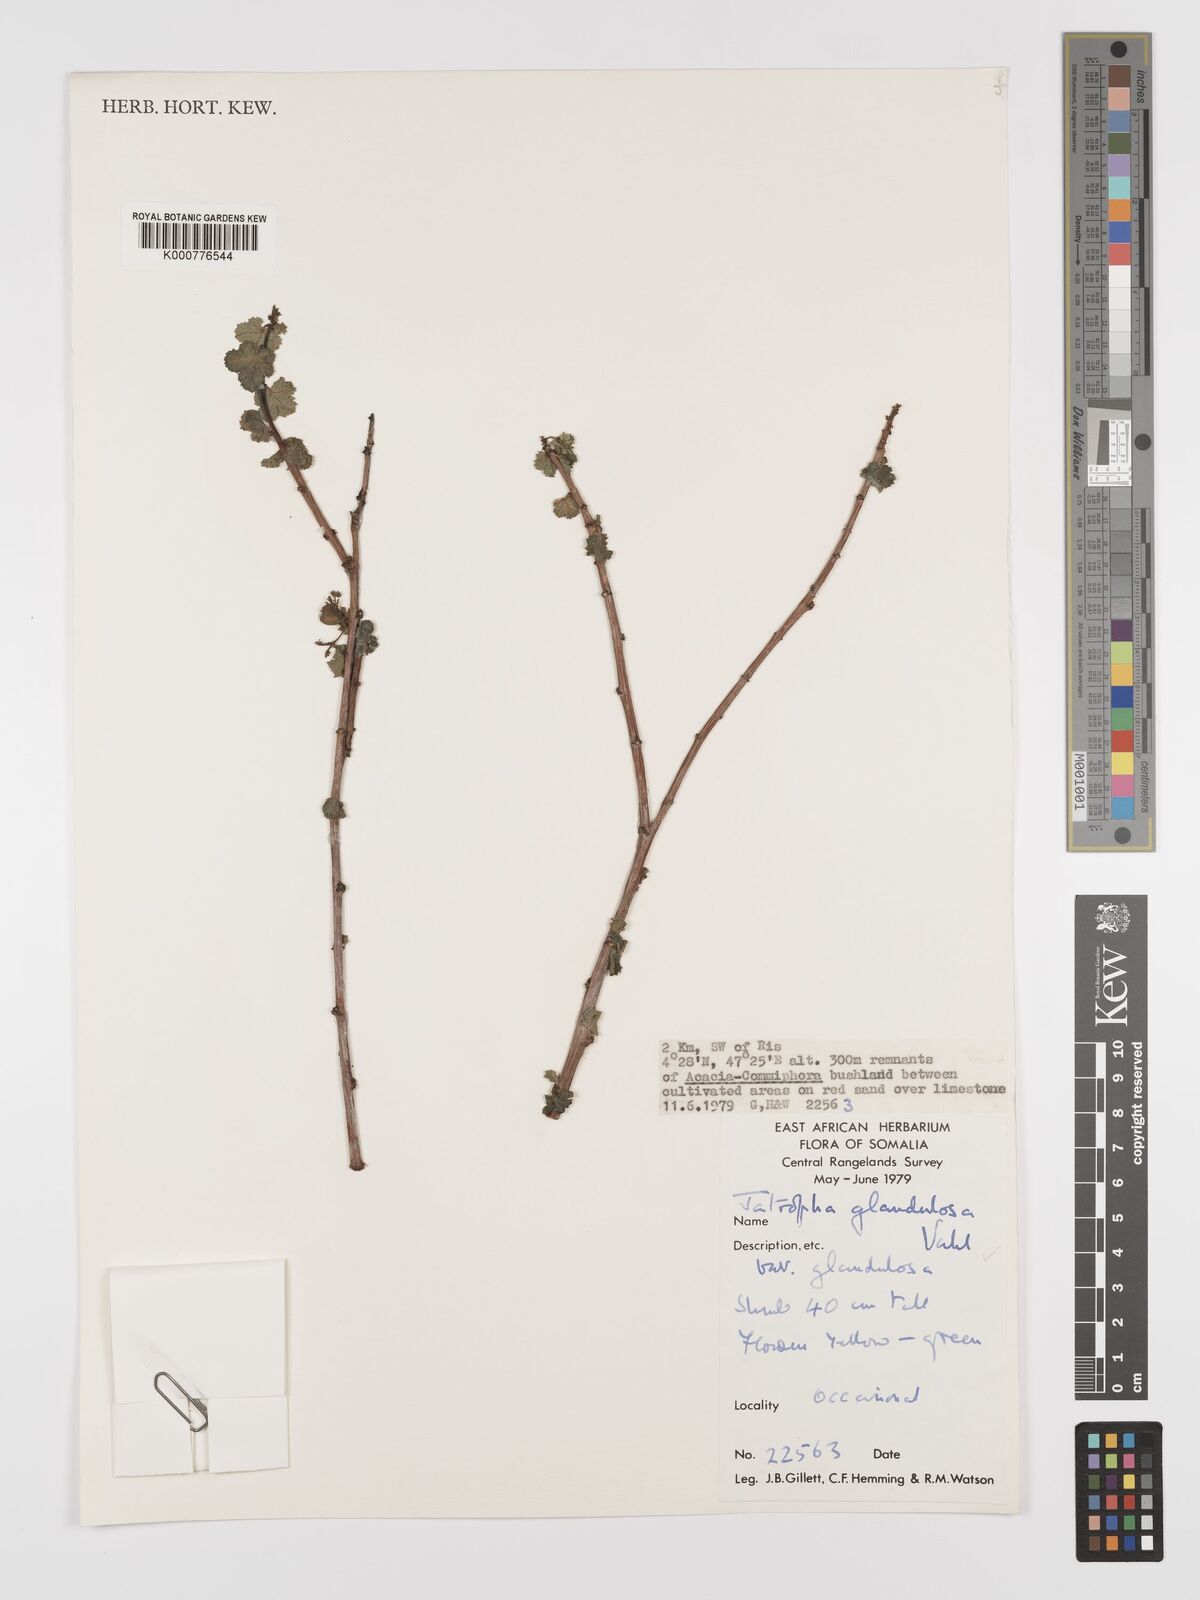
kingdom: Plantae
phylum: Tracheophyta
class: Magnoliopsida
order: Malpighiales
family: Euphorbiaceae
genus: Jatropha
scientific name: Jatropha pelargoniifolia
